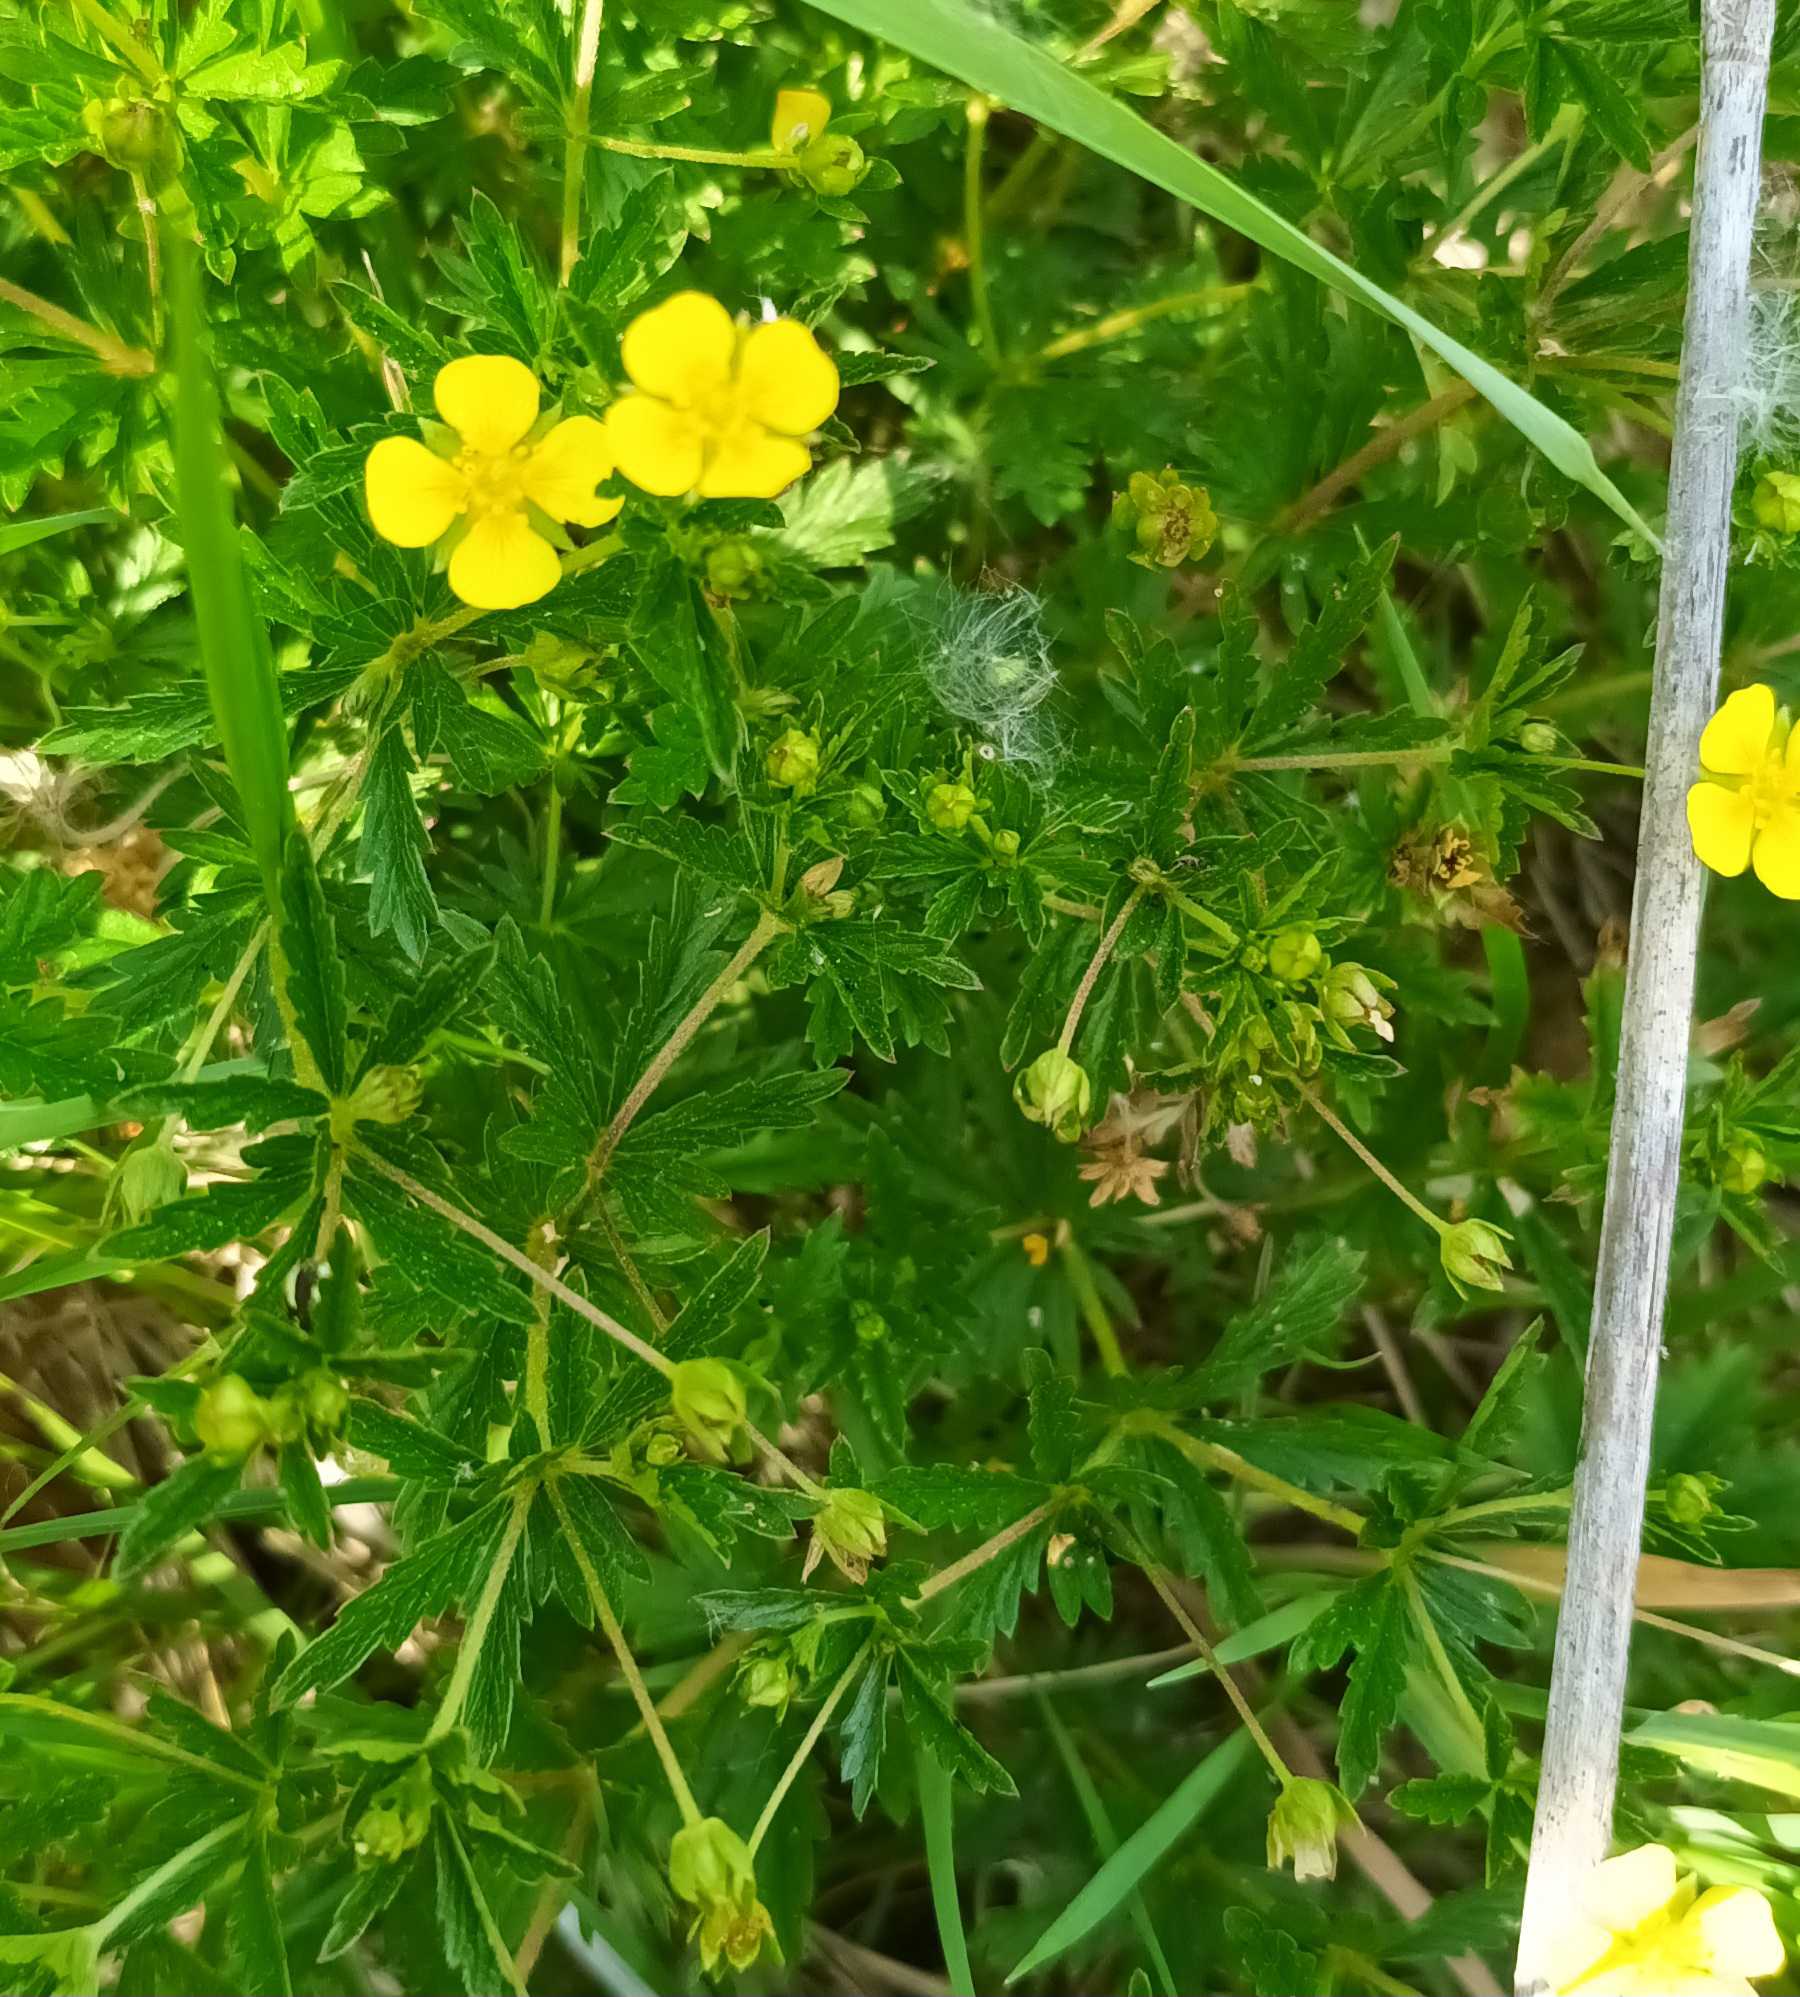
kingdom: Plantae
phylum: Tracheophyta
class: Magnoliopsida
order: Rosales
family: Rosaceae
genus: Potentilla
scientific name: Potentilla erecta
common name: Tormentil
